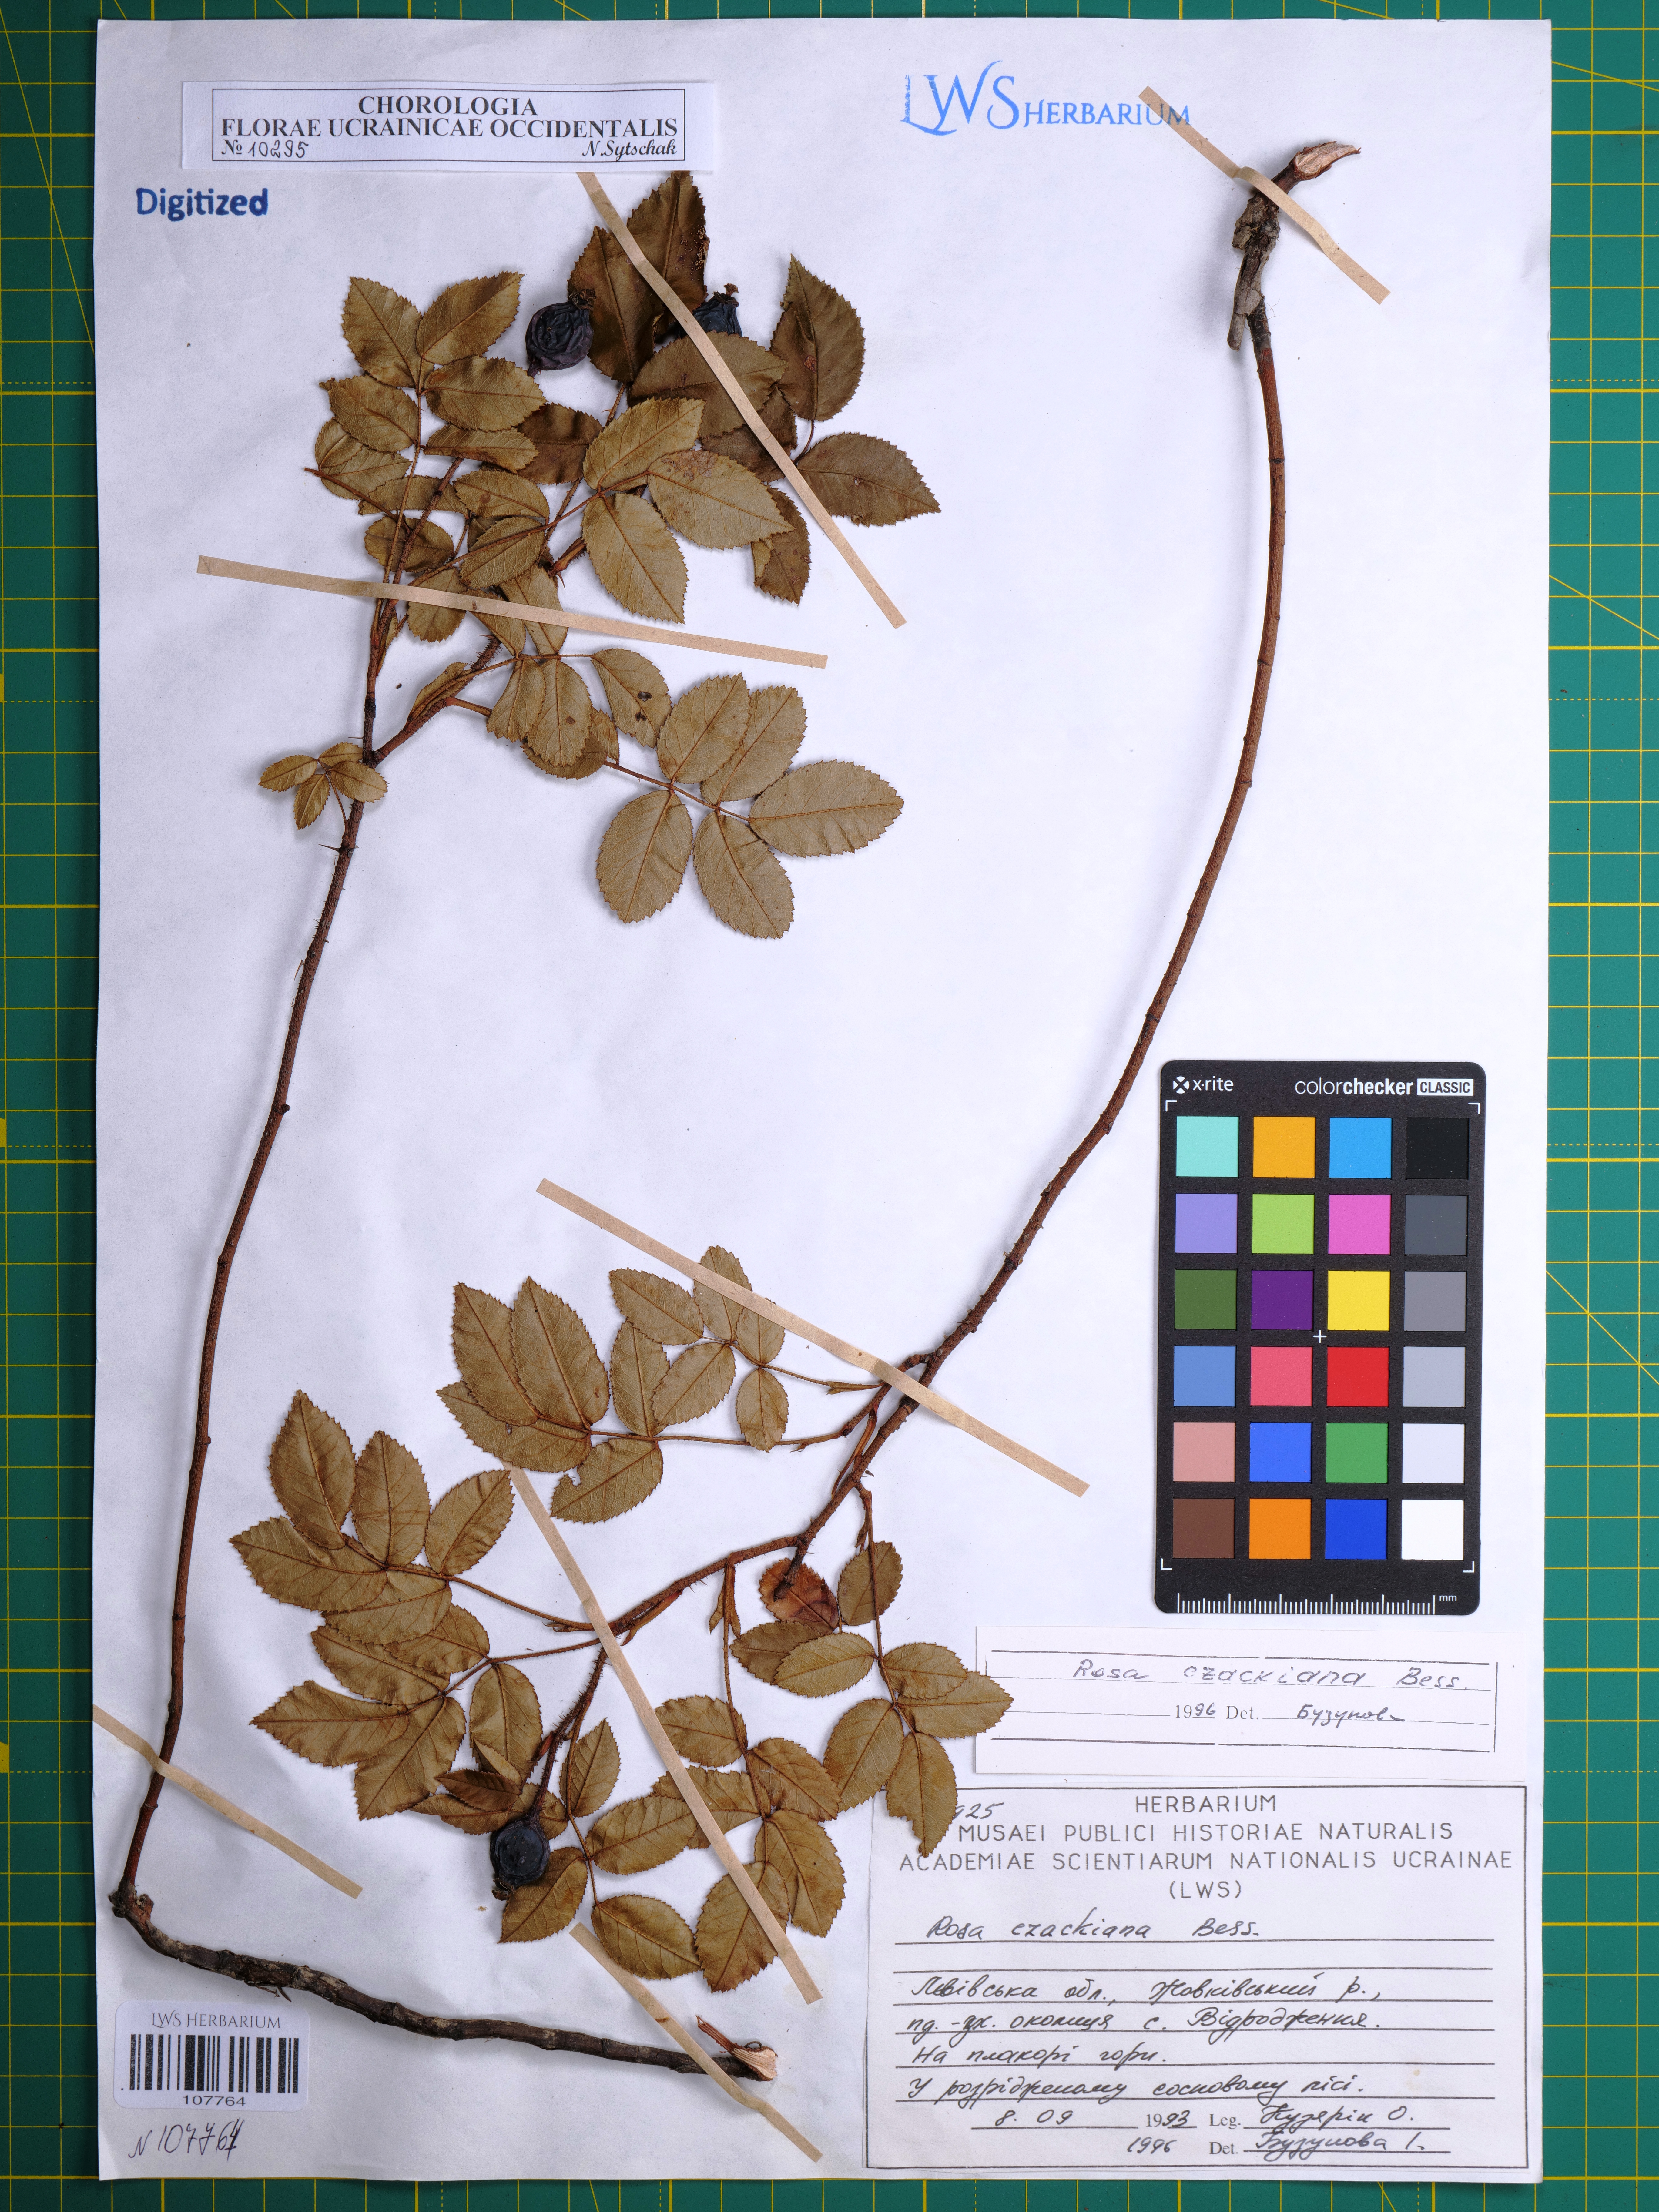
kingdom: Plantae
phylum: Tracheophyta
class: Magnoliopsida
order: Rosales
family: Rosaceae
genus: Rosa
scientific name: Rosa gallica
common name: French rose
